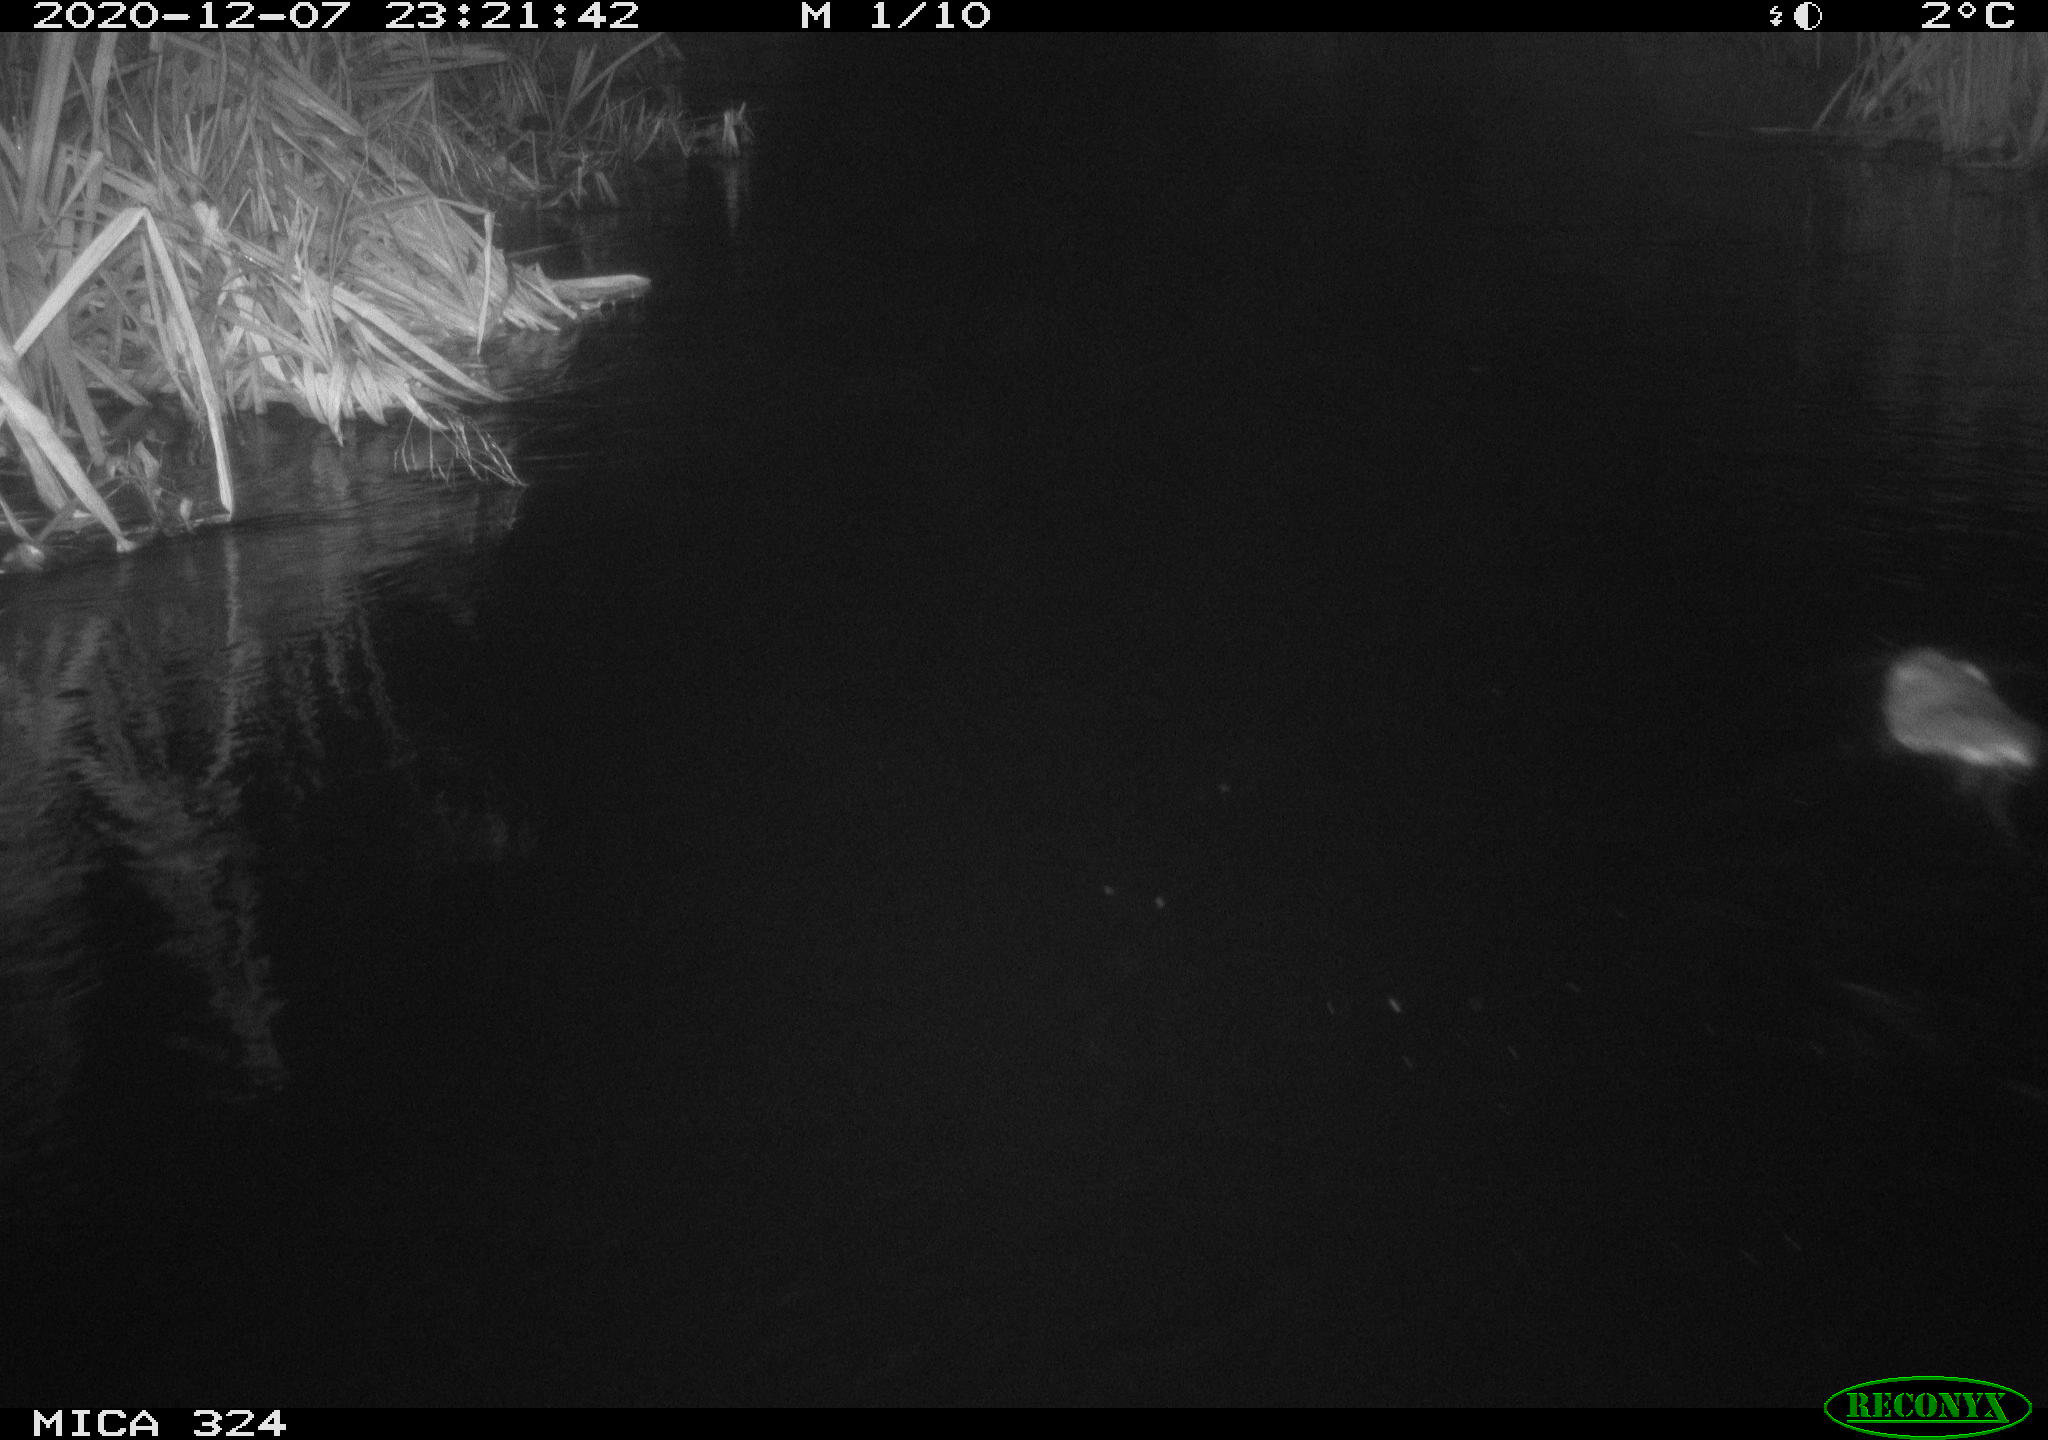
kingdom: Animalia
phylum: Chordata
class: Mammalia
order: Rodentia
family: Cricetidae
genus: Ondatra
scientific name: Ondatra zibethicus
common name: Muskrat
